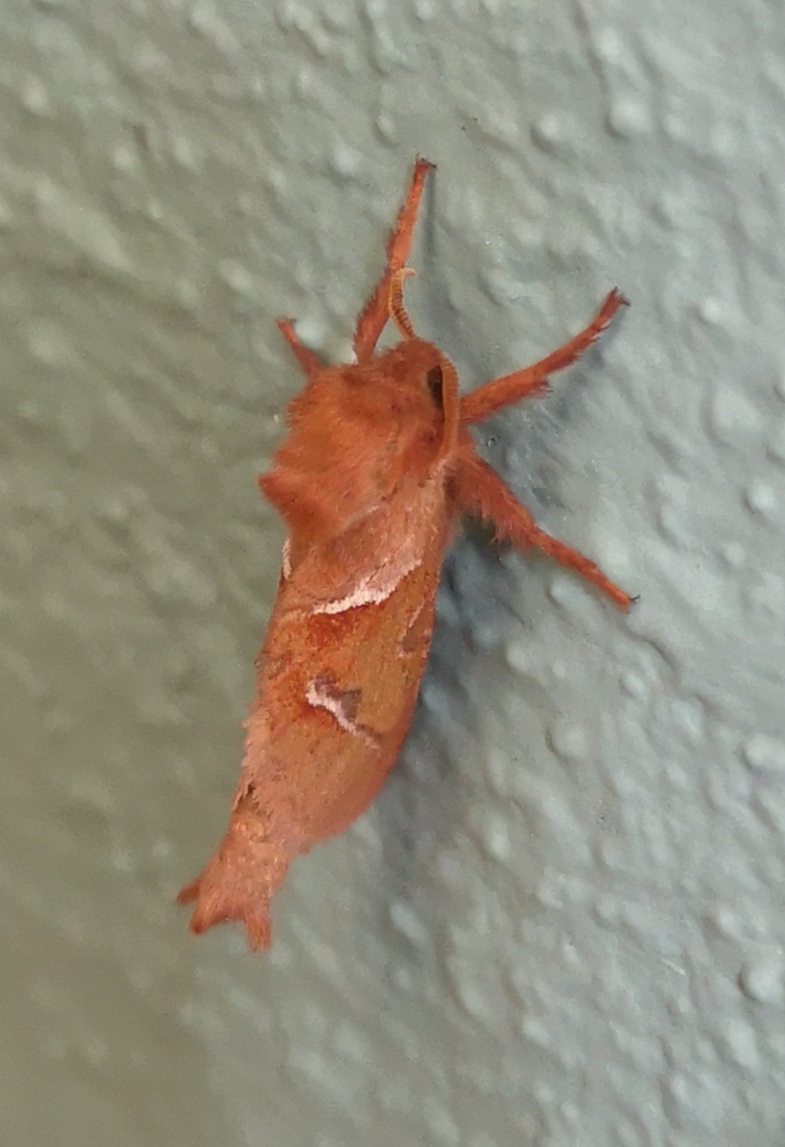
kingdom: Animalia
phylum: Arthropoda
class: Insecta
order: Lepidoptera
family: Hepialidae
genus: Triodia
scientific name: Triodia sylvina
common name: Skræpperodæder
